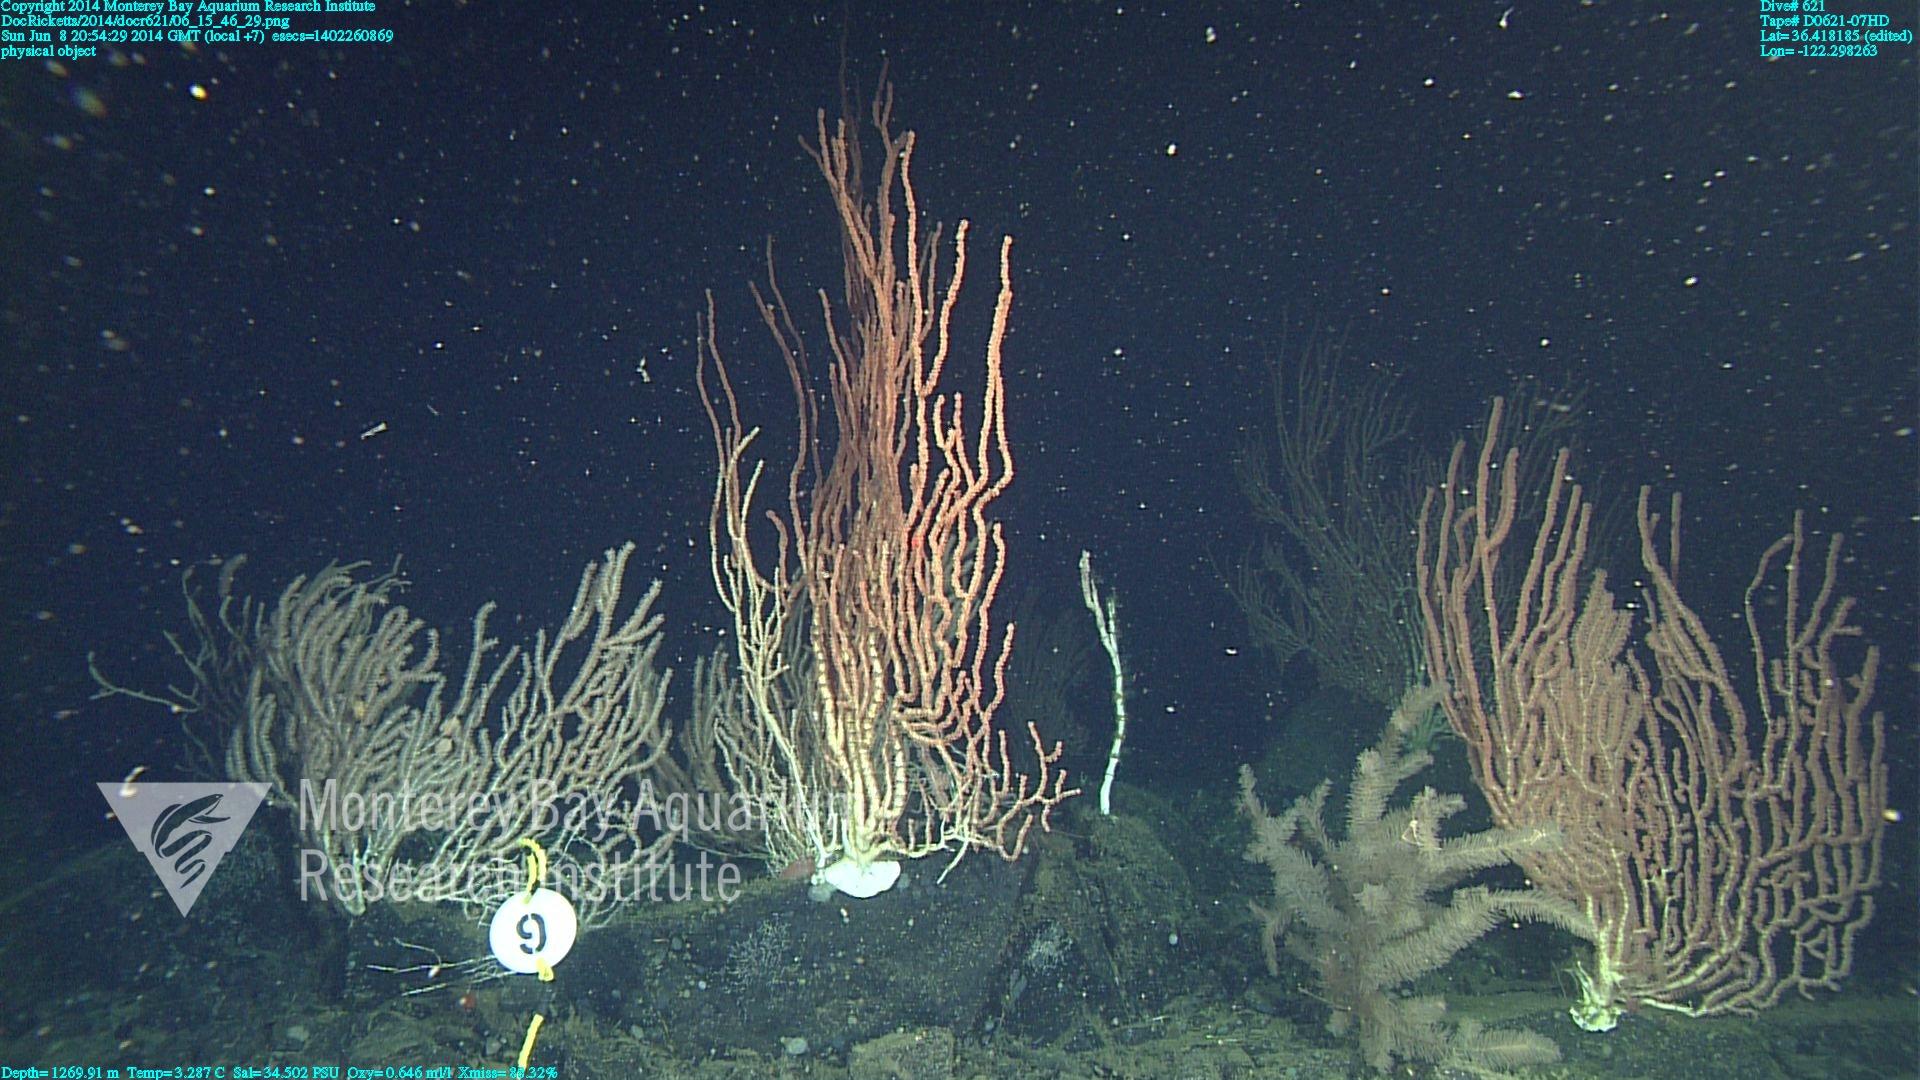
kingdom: Animalia
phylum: Cnidaria
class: Anthozoa
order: Scleralcyonacea
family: Keratoisididae
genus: Keratoisis
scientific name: Keratoisis
